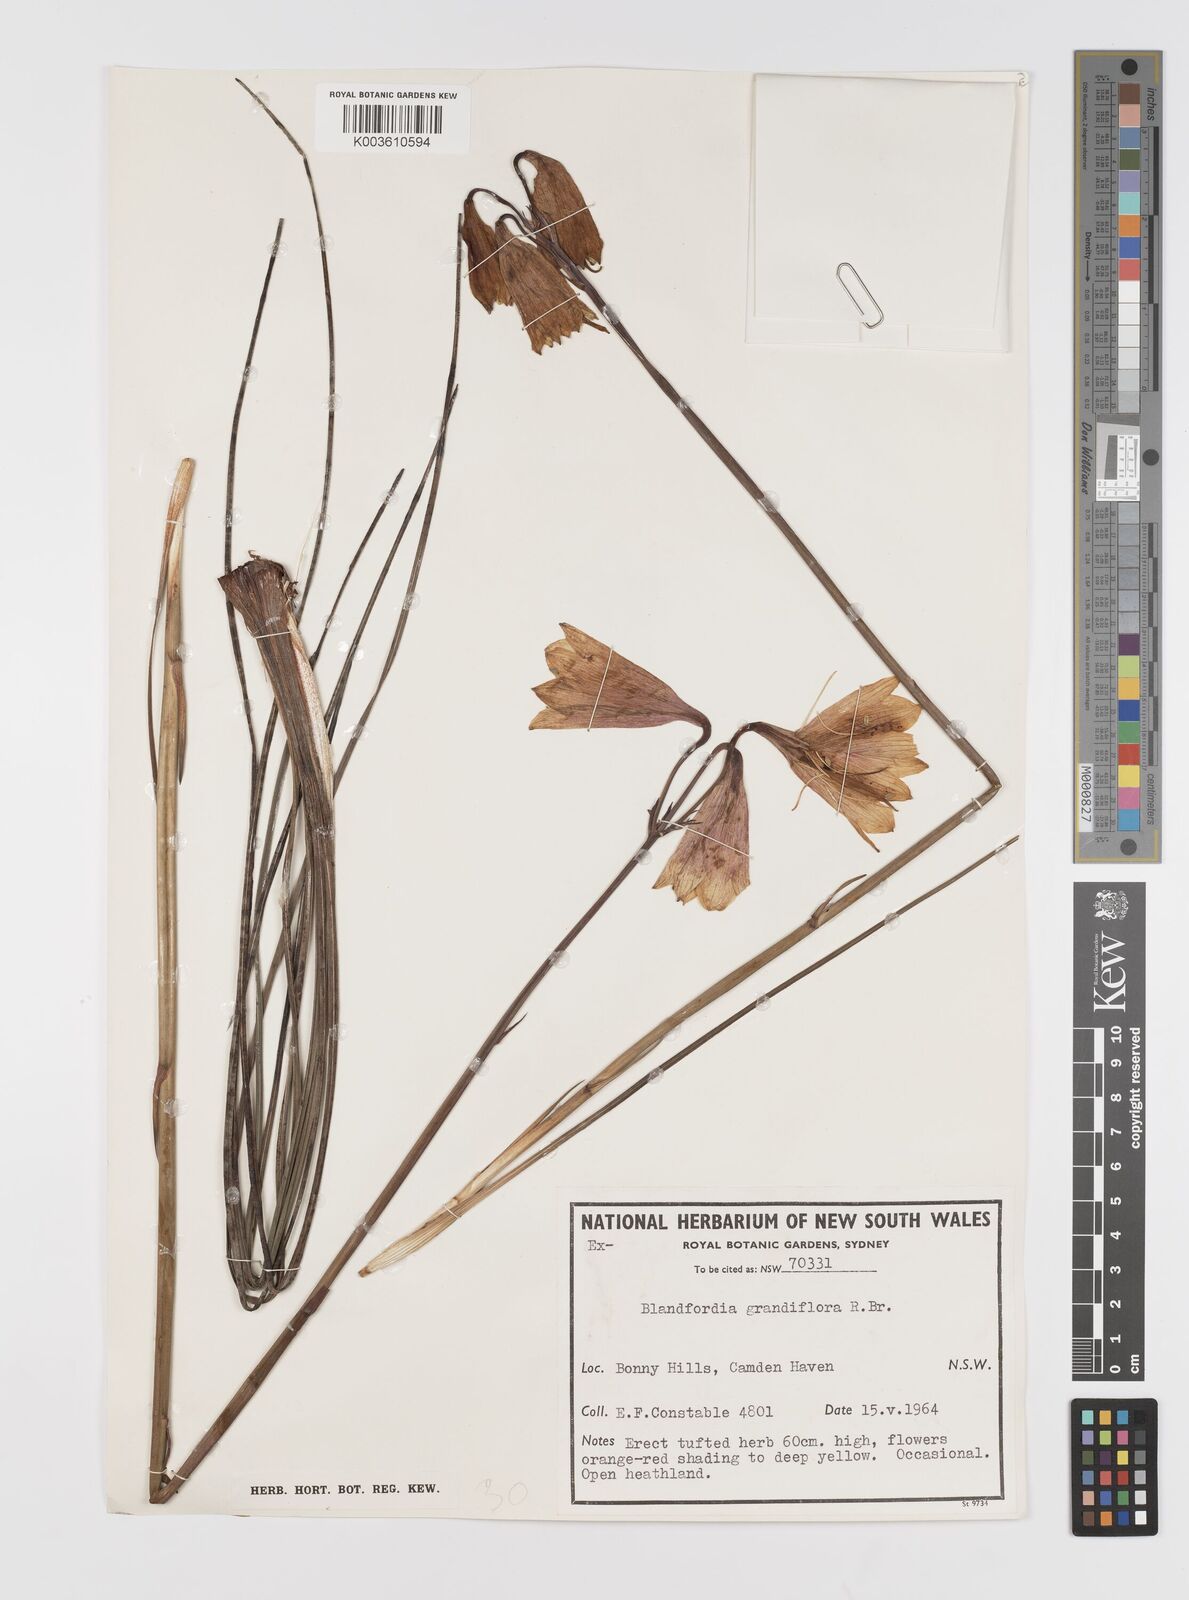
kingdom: Plantae
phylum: Tracheophyta
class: Liliopsida
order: Asparagales
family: Blandfordiaceae
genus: Blandfordia
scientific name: Blandfordia cunninghamii
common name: Christmas-bell
